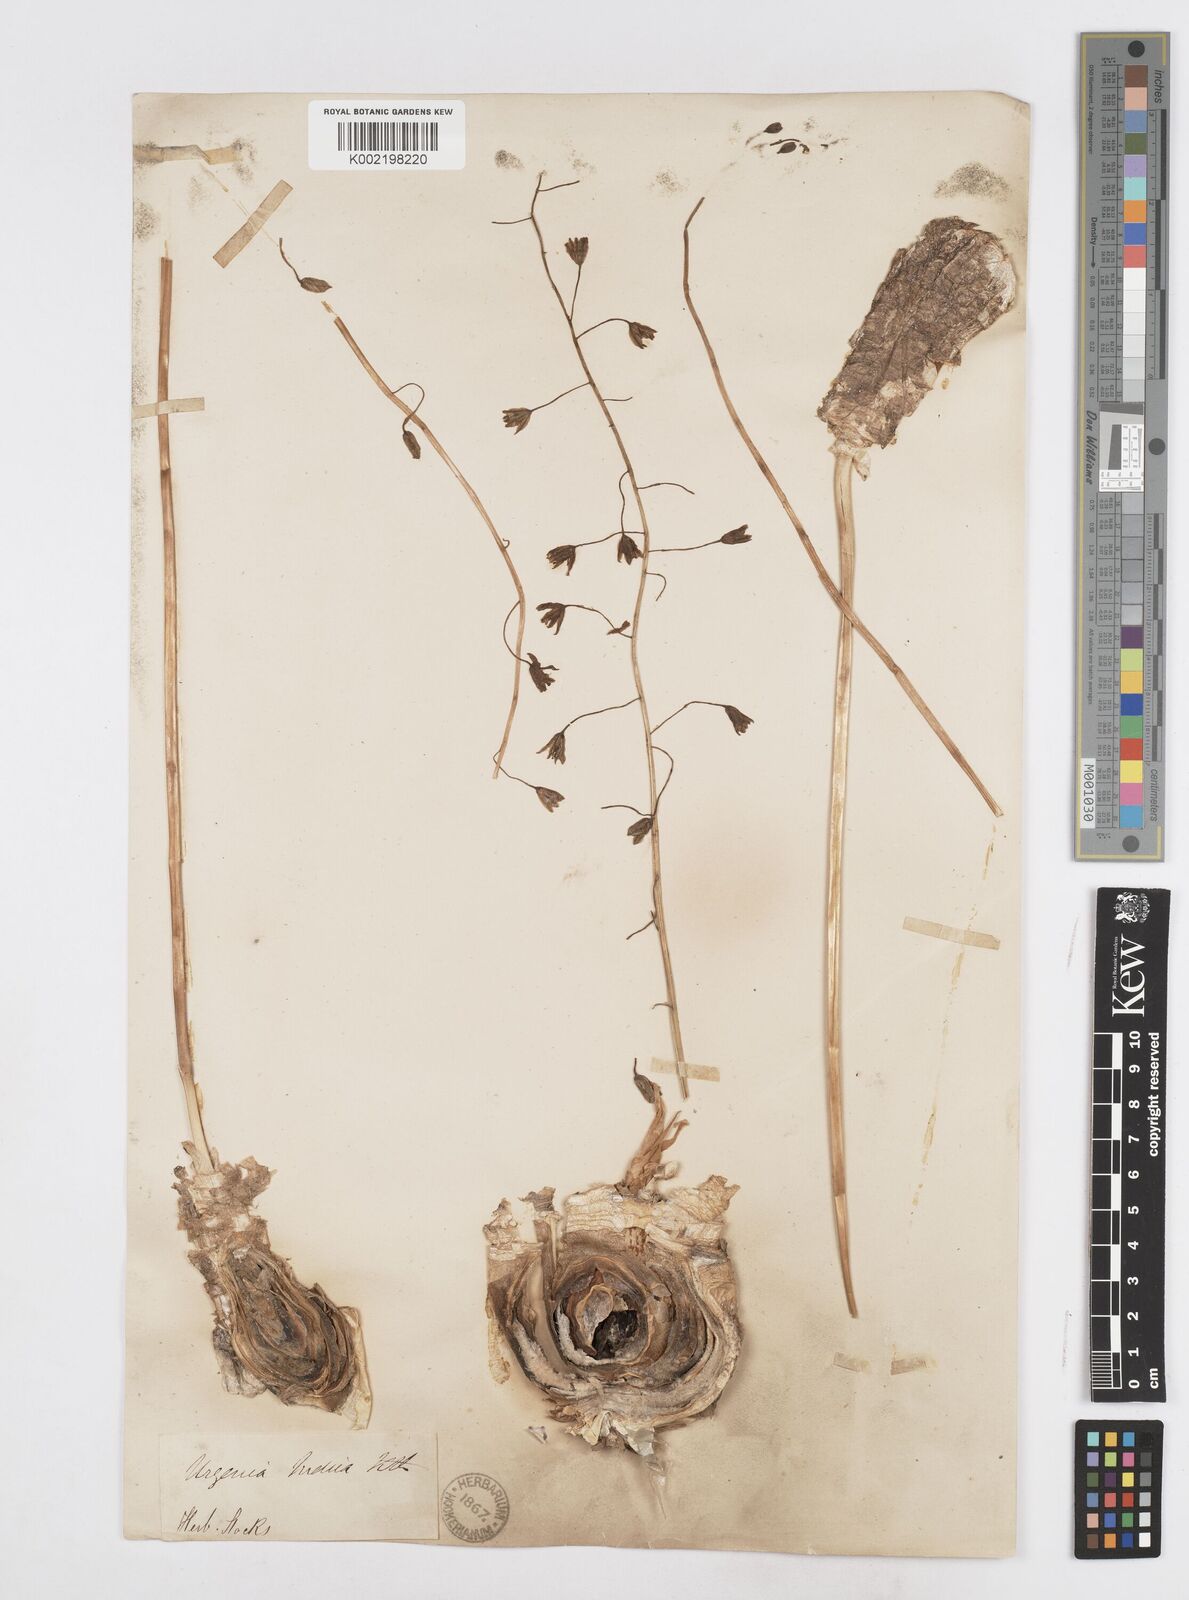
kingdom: Plantae
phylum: Tracheophyta
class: Liliopsida
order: Asparagales
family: Asparagaceae
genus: Drimia
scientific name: Drimia indica
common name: Indian-squill
